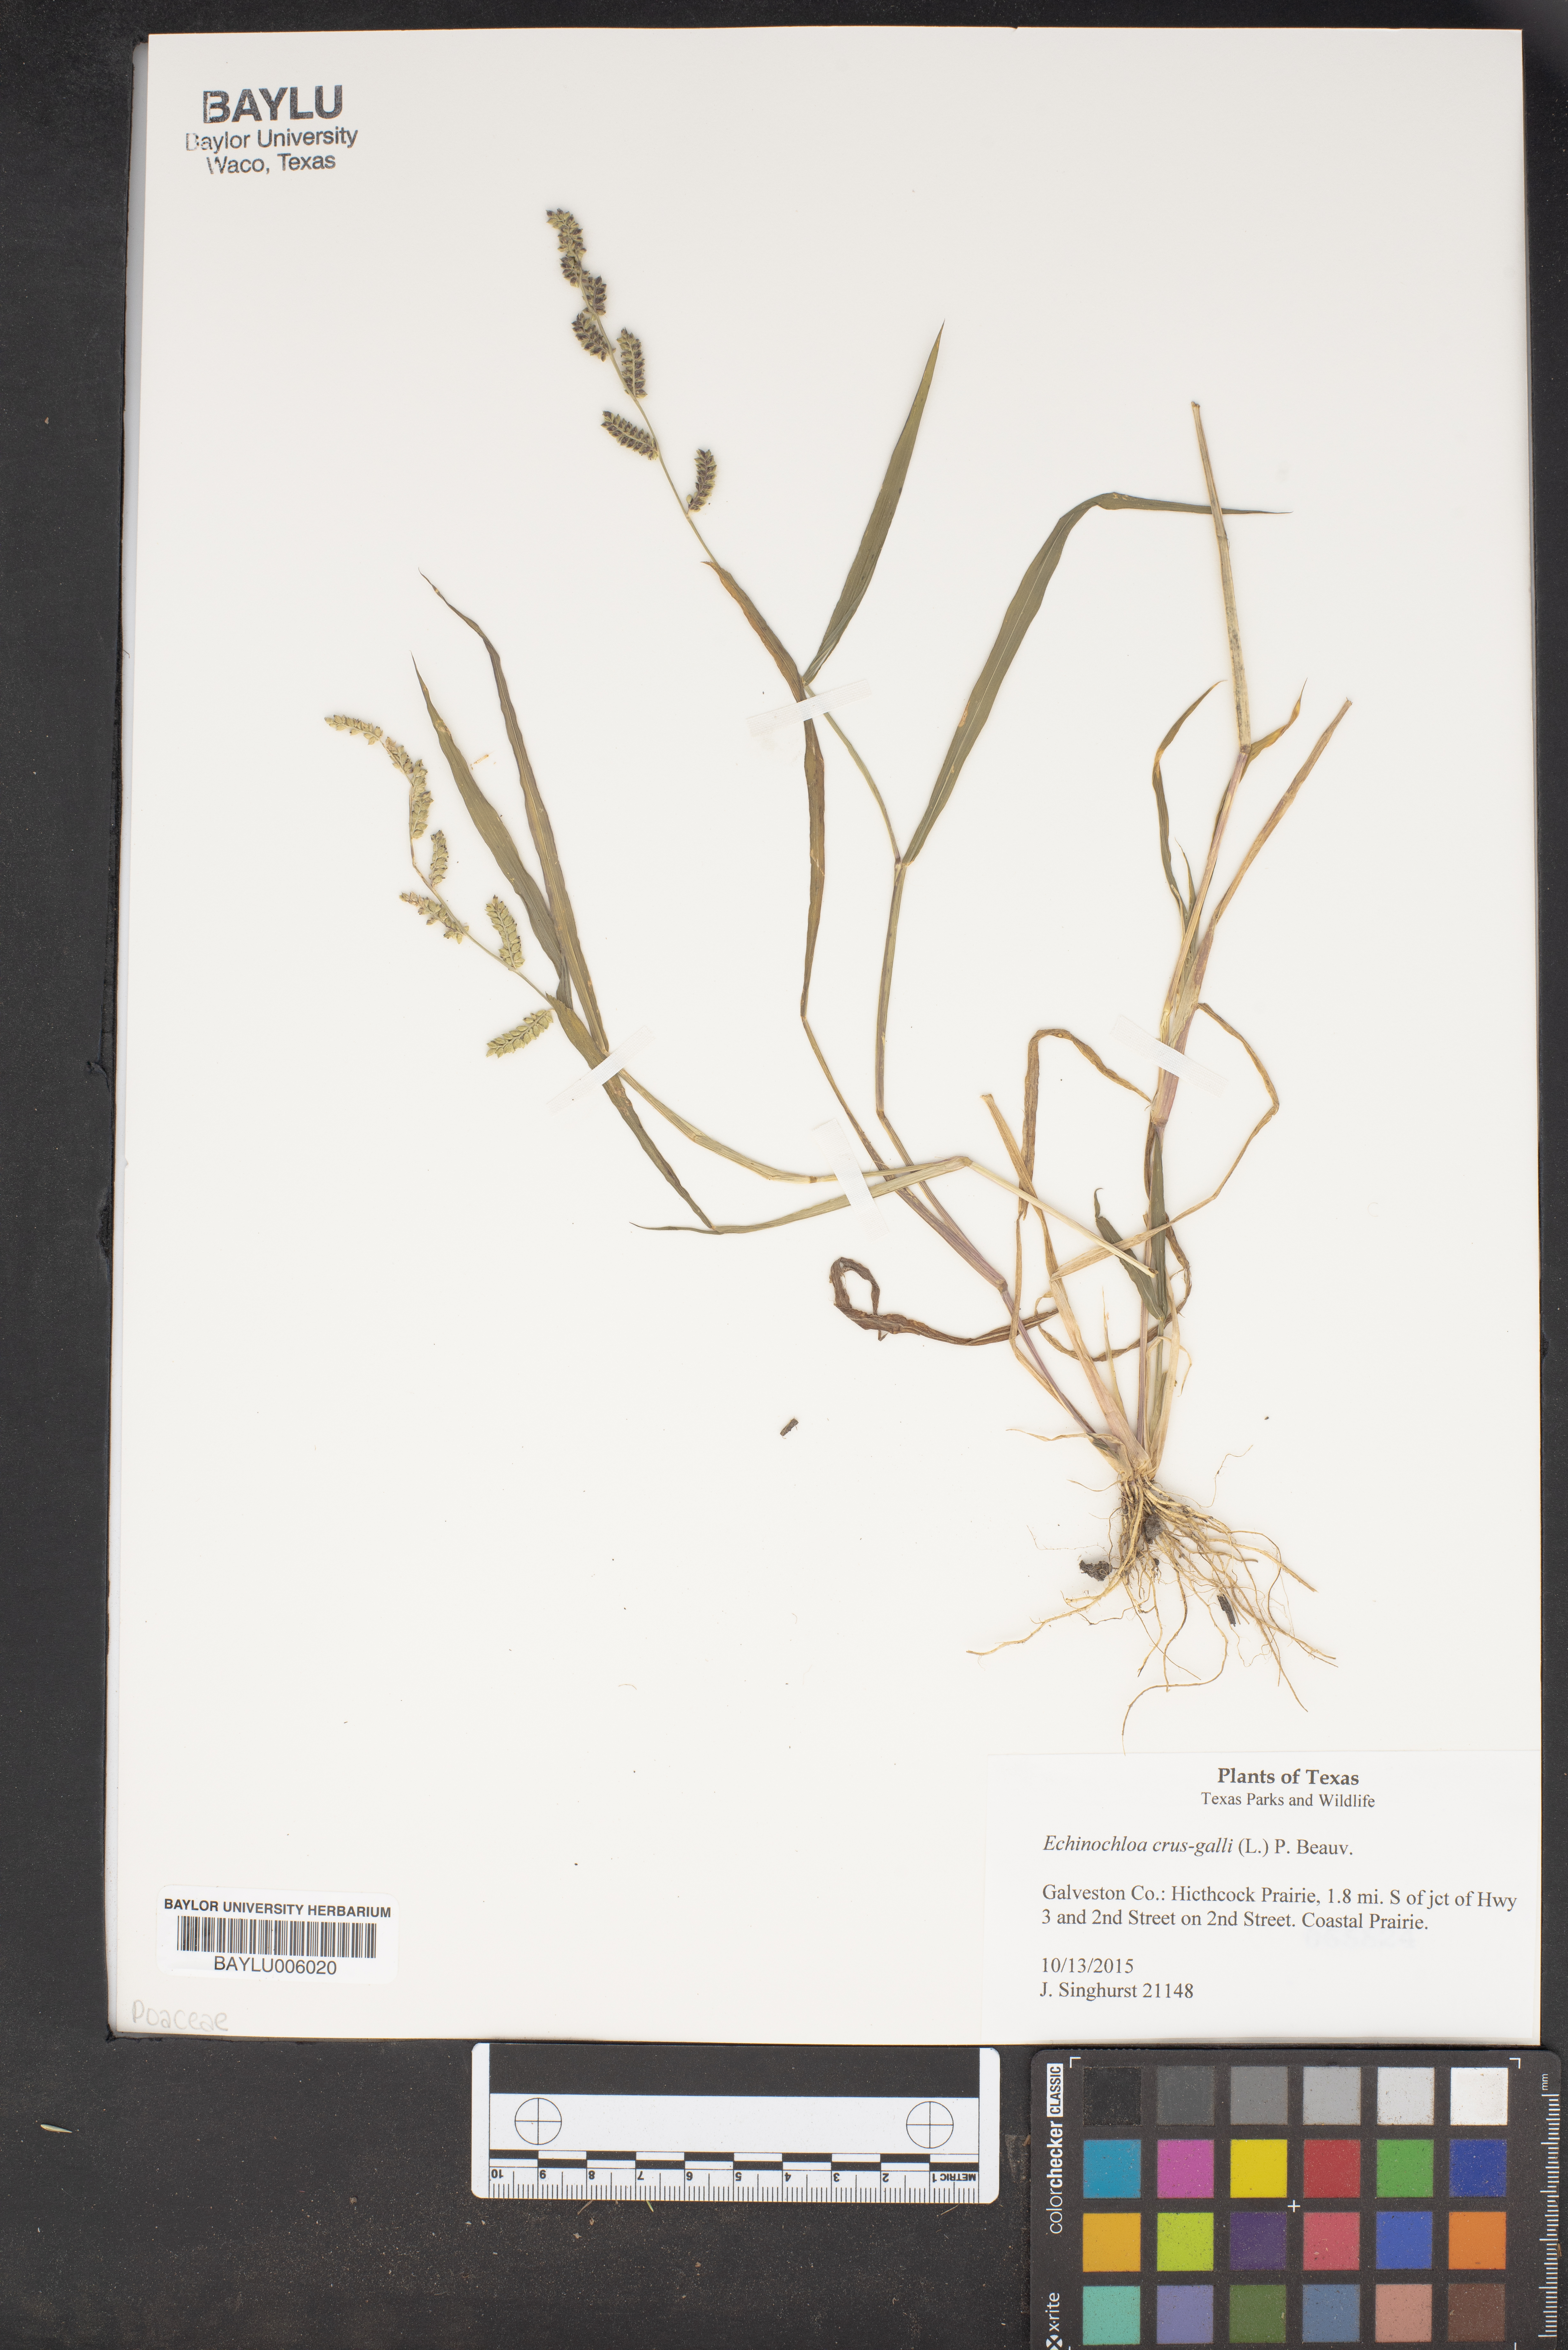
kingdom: Plantae
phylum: Tracheophyta
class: Liliopsida
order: Poales
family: Poaceae
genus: Echinochloa
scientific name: Echinochloa crus-galli
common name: Cockspur
